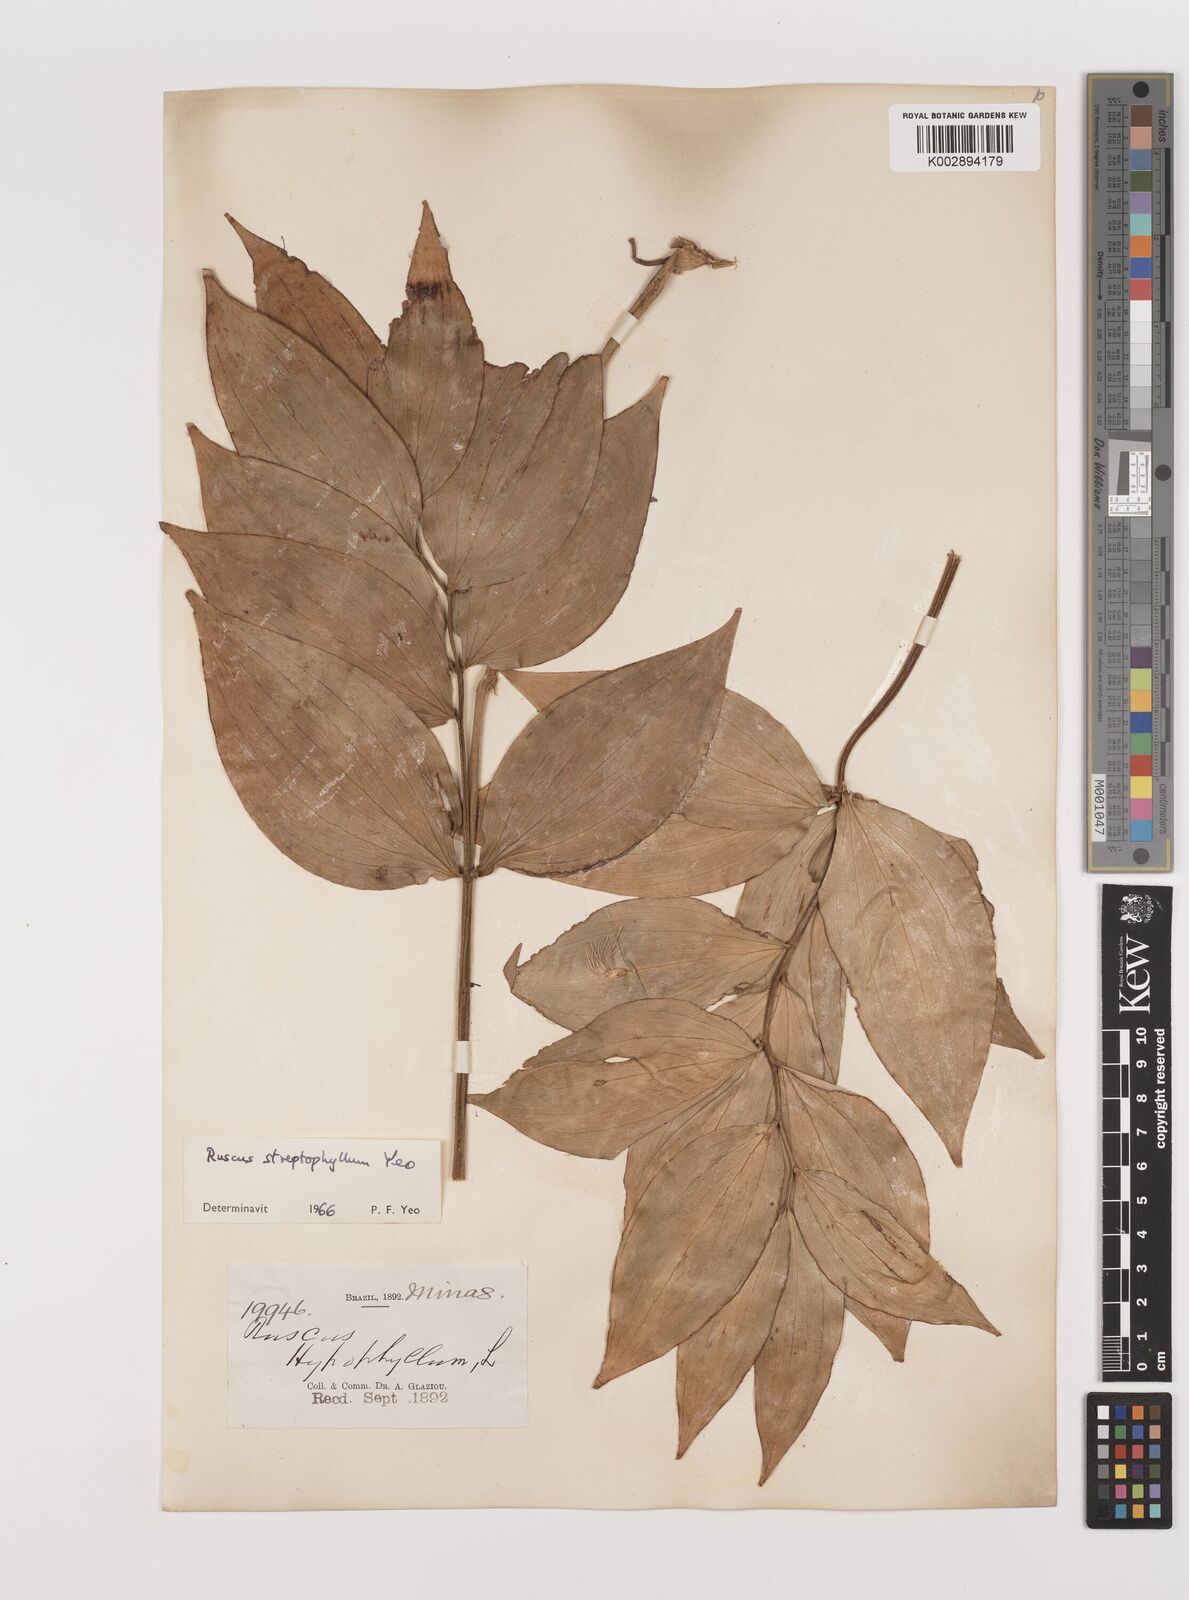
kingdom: Plantae
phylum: Tracheophyta
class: Liliopsida
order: Asparagales
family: Asparagaceae
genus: Ruscus
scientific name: Ruscus
